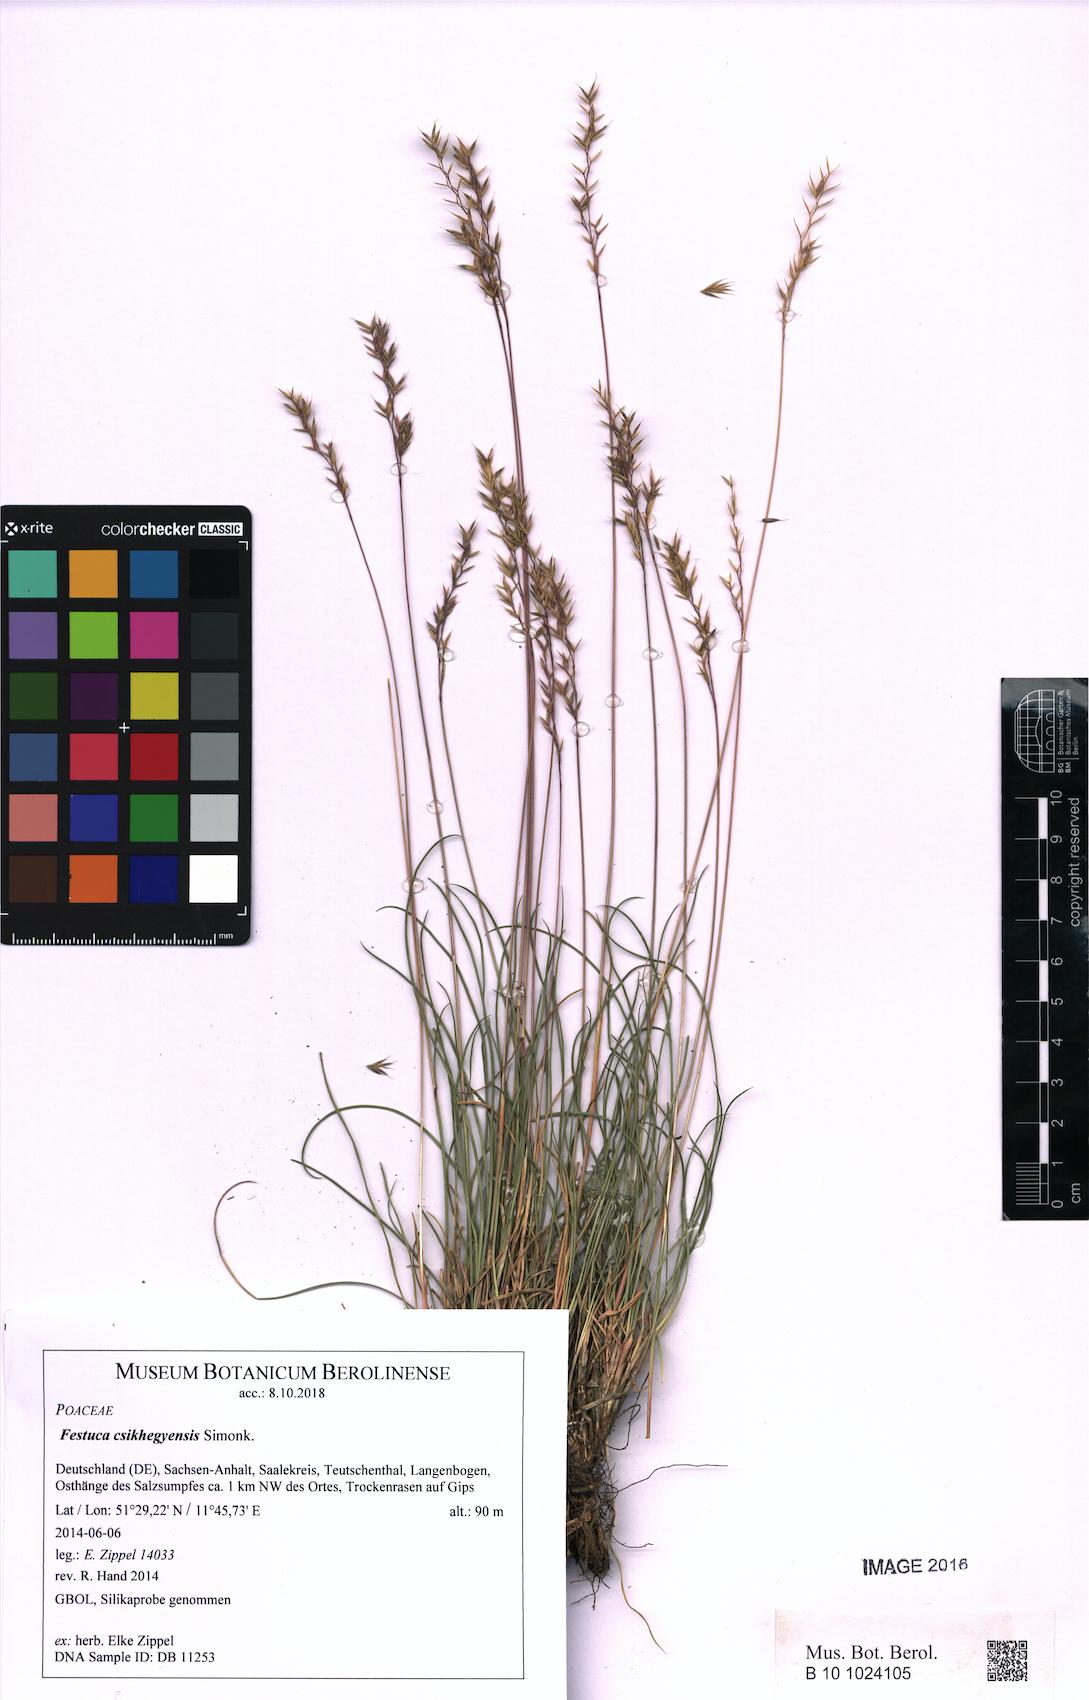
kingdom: Plantae
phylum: Tracheophyta
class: Liliopsida
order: Poales
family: Poaceae
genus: Festuca
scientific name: Festuca csikhegyensis
